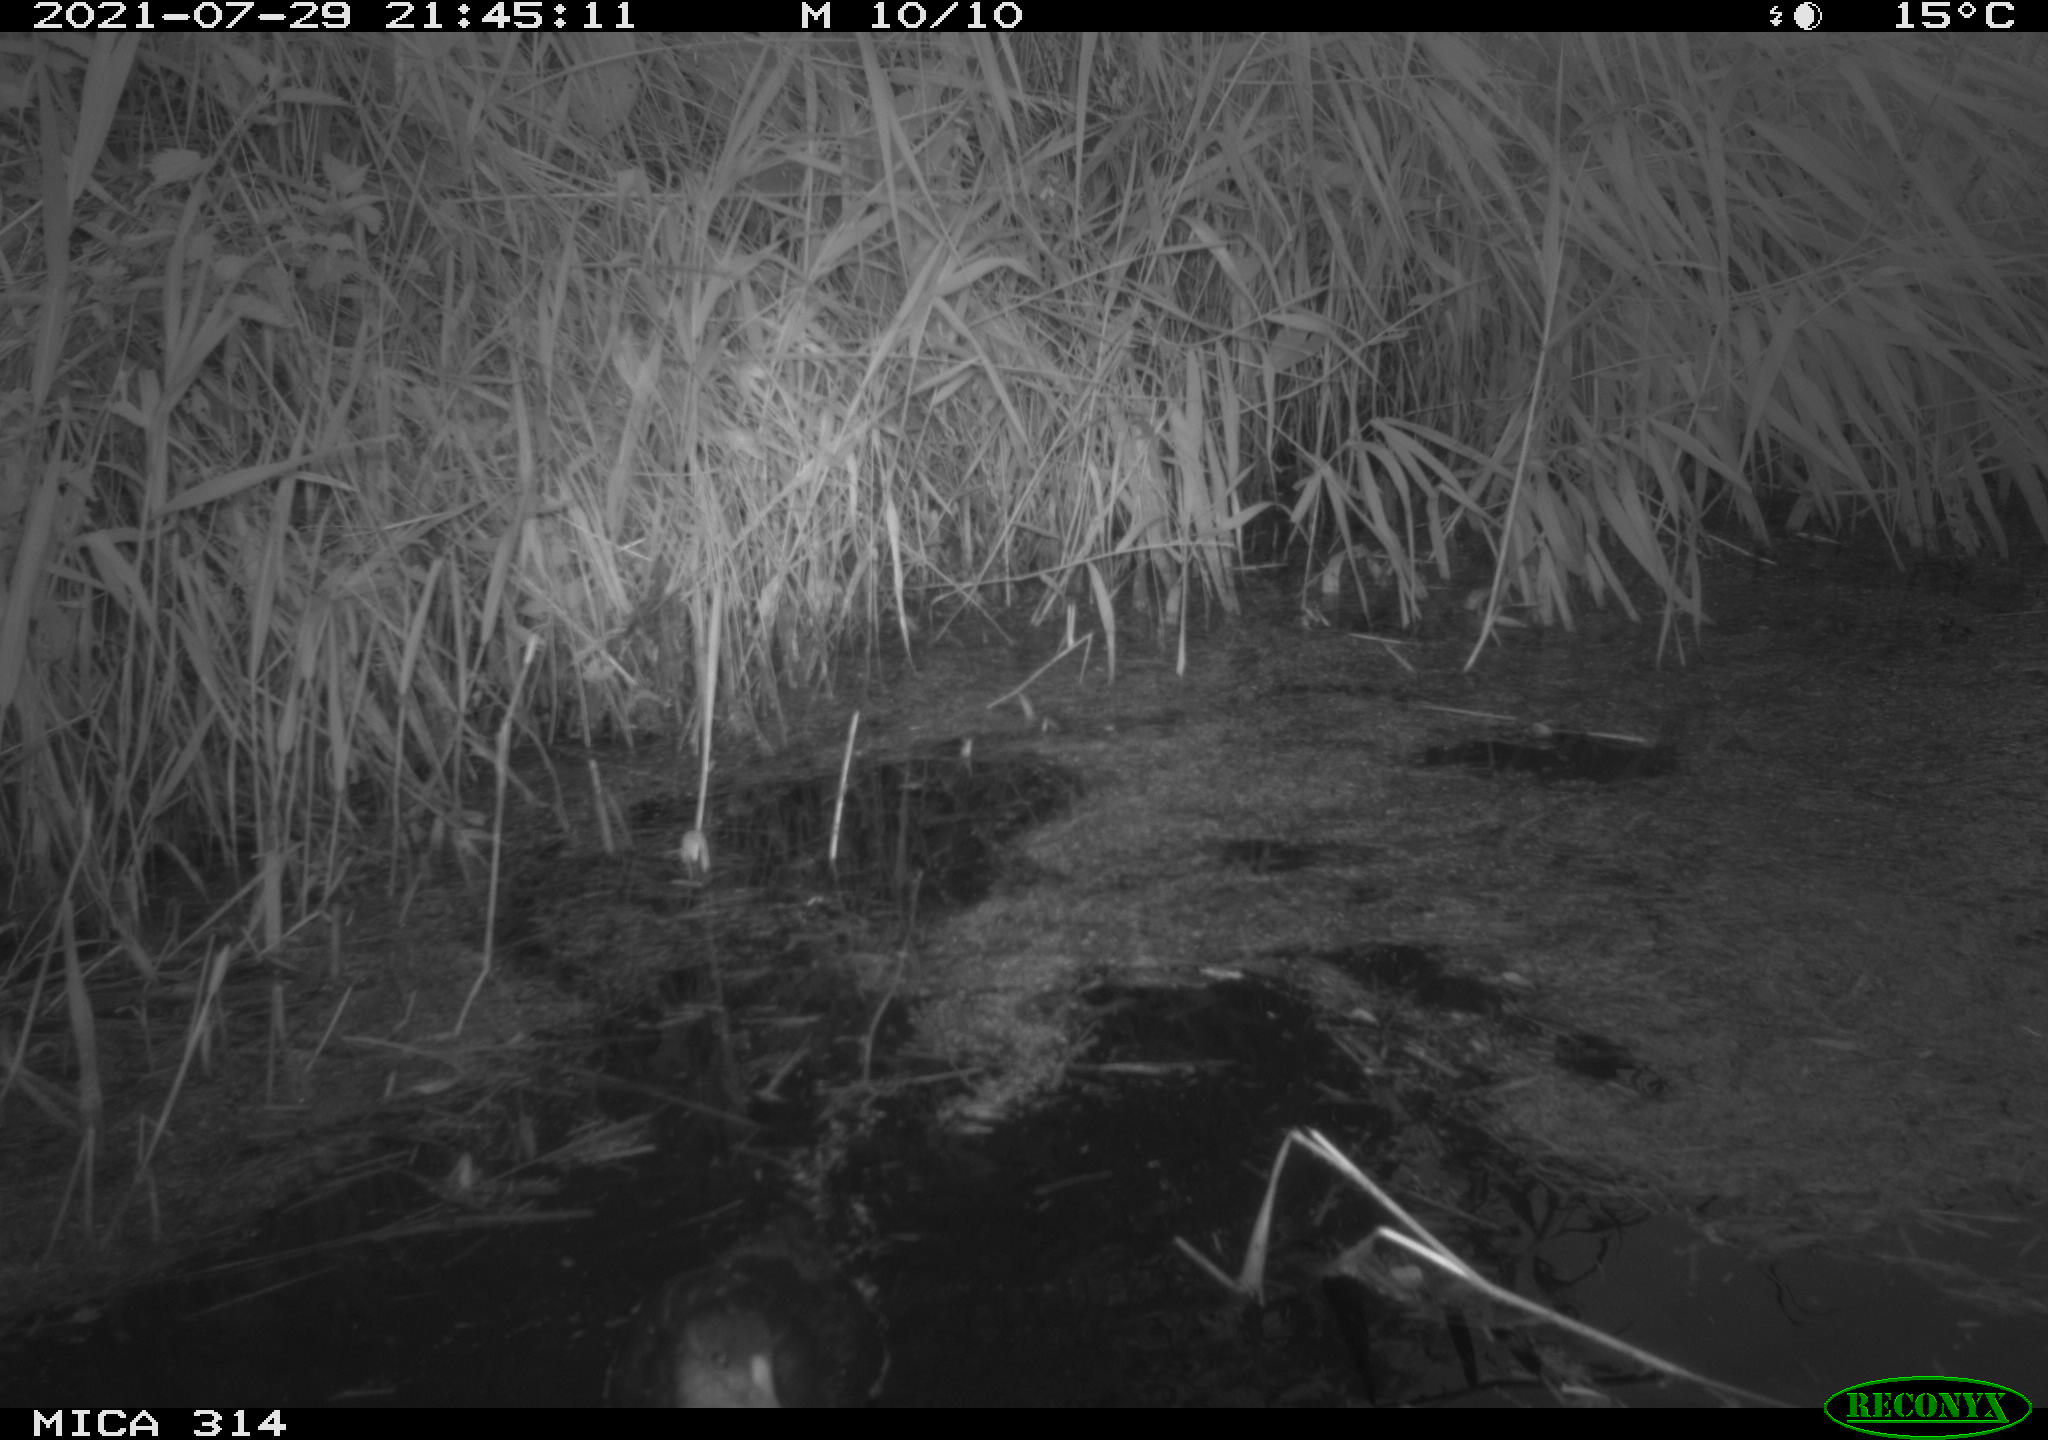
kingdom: Animalia
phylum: Chordata
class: Aves
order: Gruiformes
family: Rallidae
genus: Gallinula
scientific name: Gallinula chloropus
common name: Common moorhen
